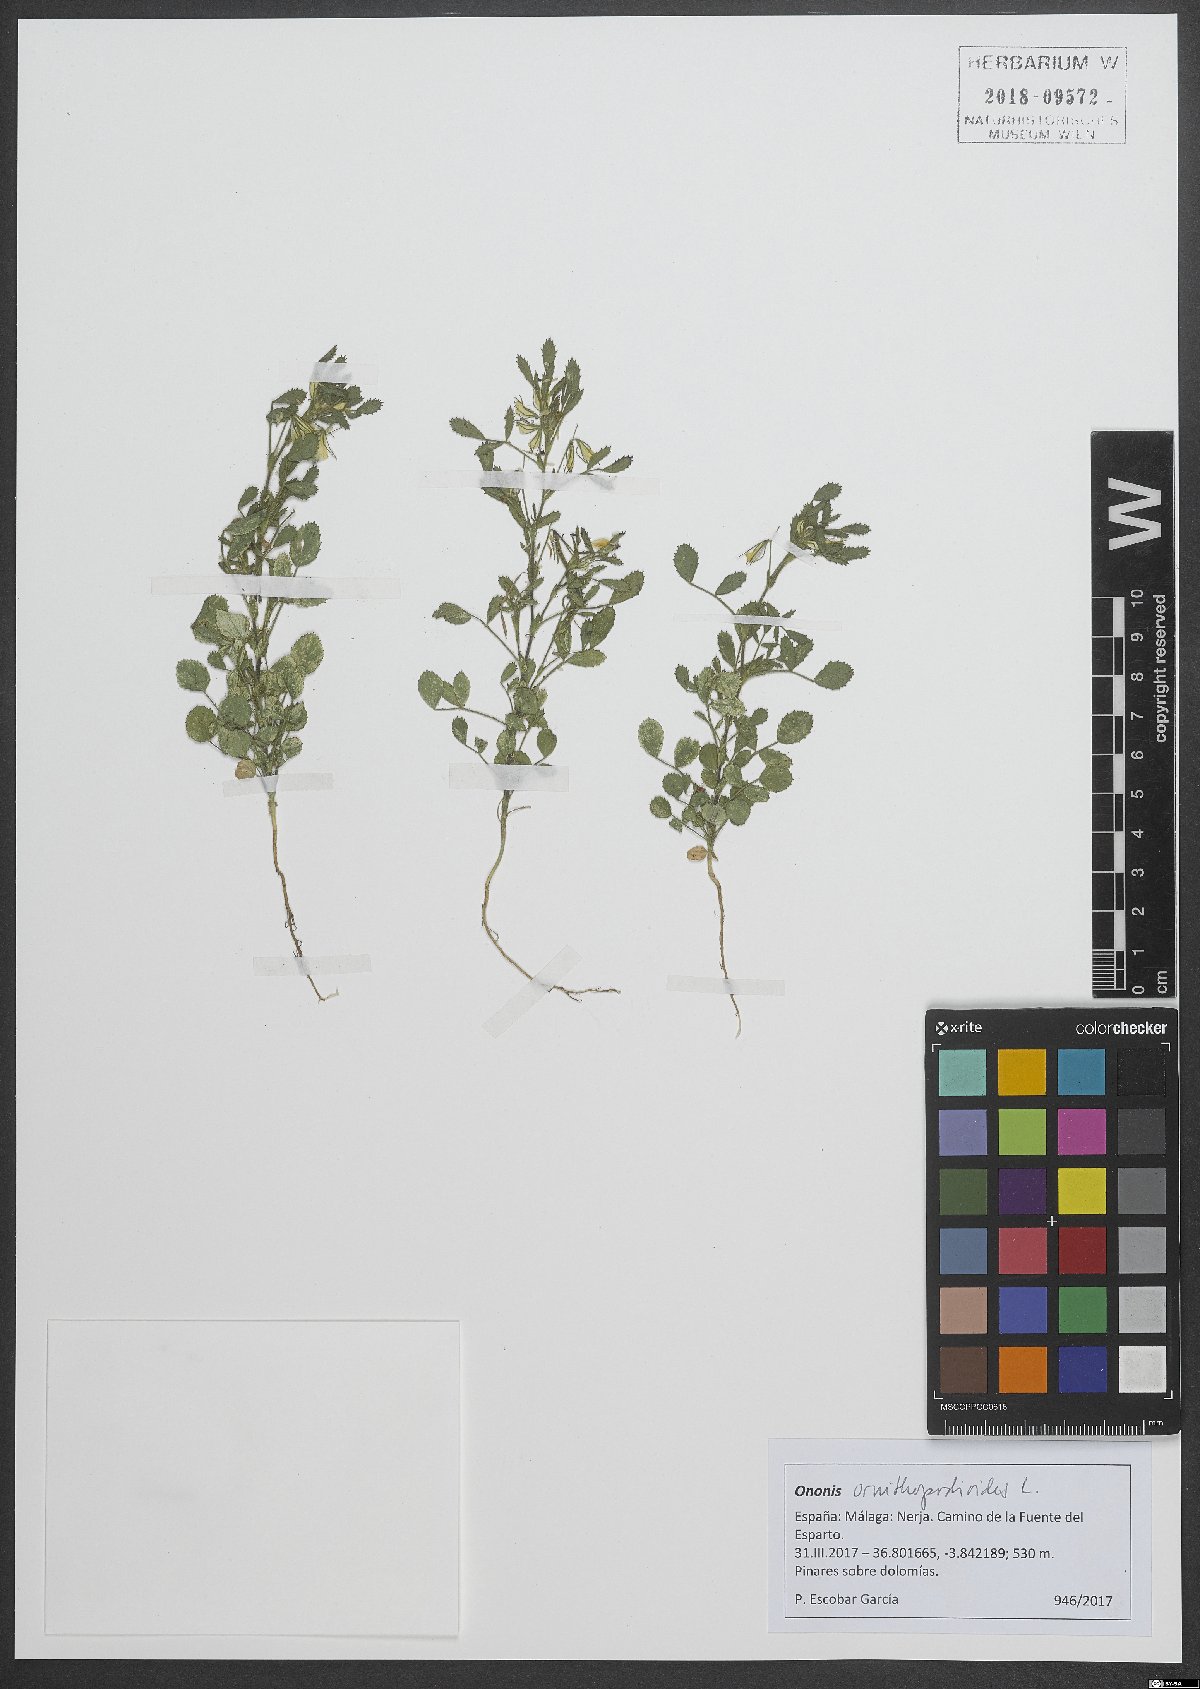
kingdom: Plantae
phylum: Tracheophyta
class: Magnoliopsida
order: Fabales
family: Fabaceae
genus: Ononis
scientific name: Ononis ornithopodioides
